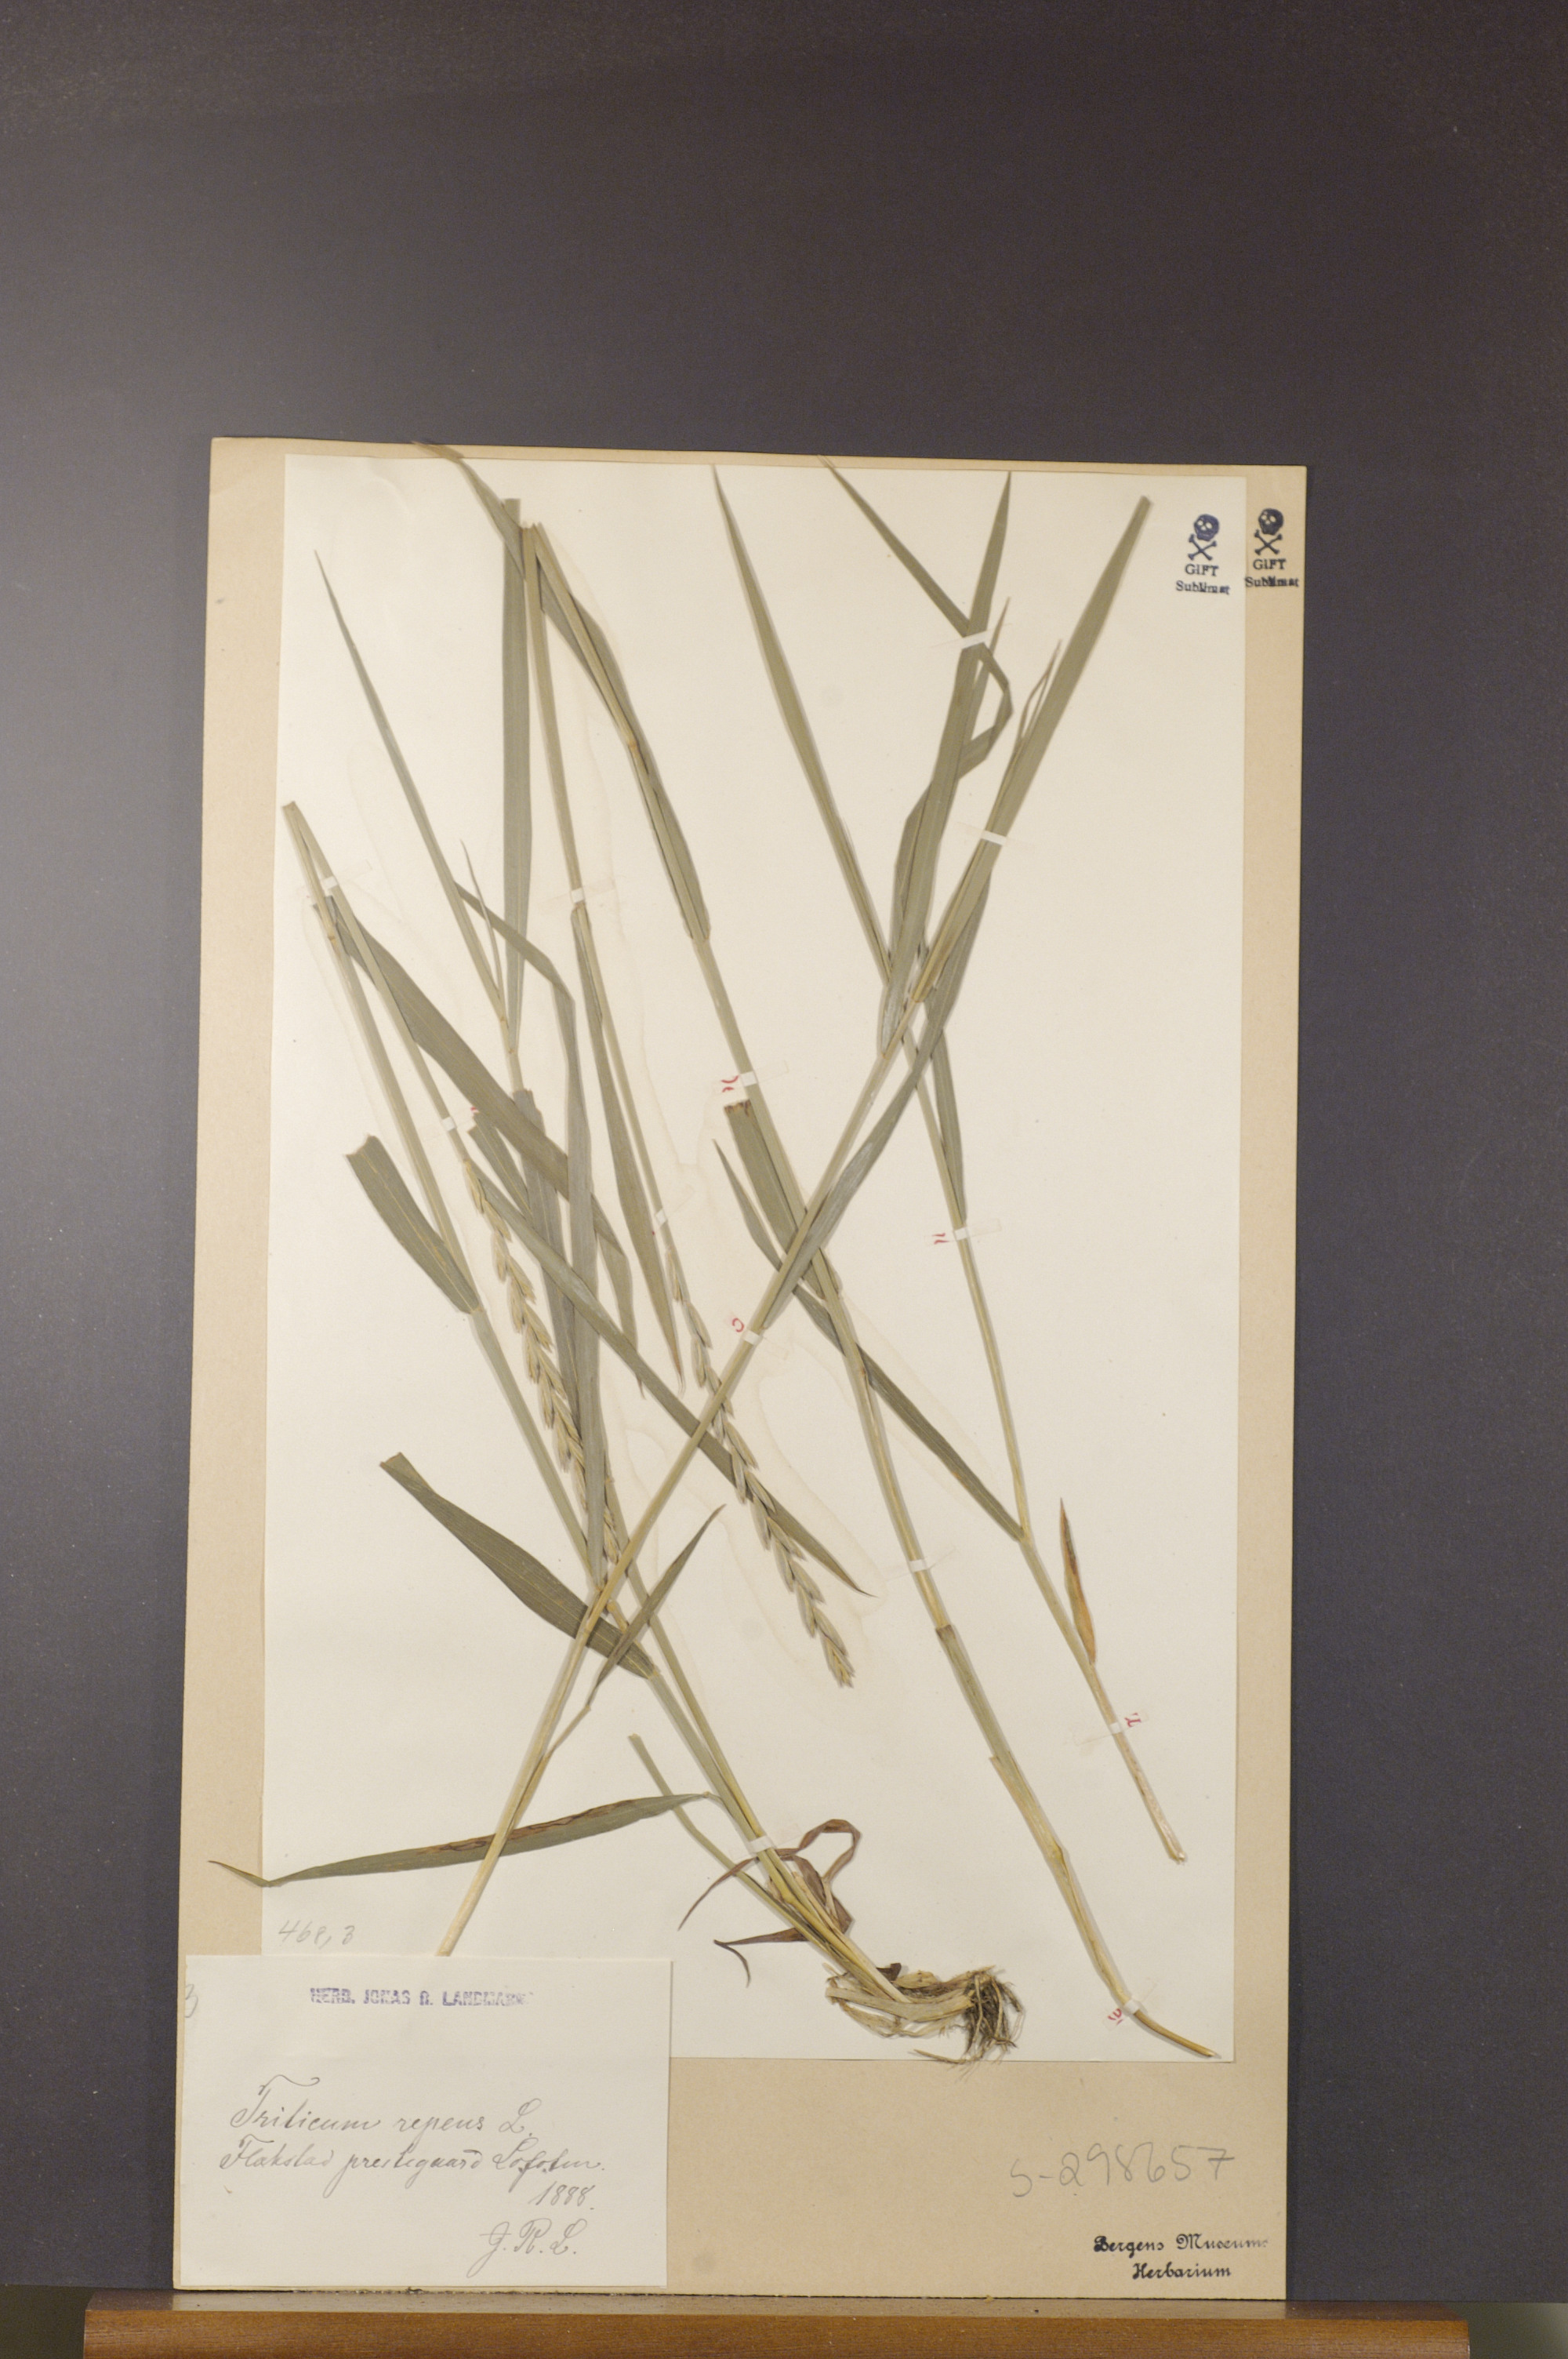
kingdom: Plantae
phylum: Tracheophyta
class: Liliopsida
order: Poales
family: Poaceae
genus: Elymus
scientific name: Elymus repens
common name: Quackgrass
